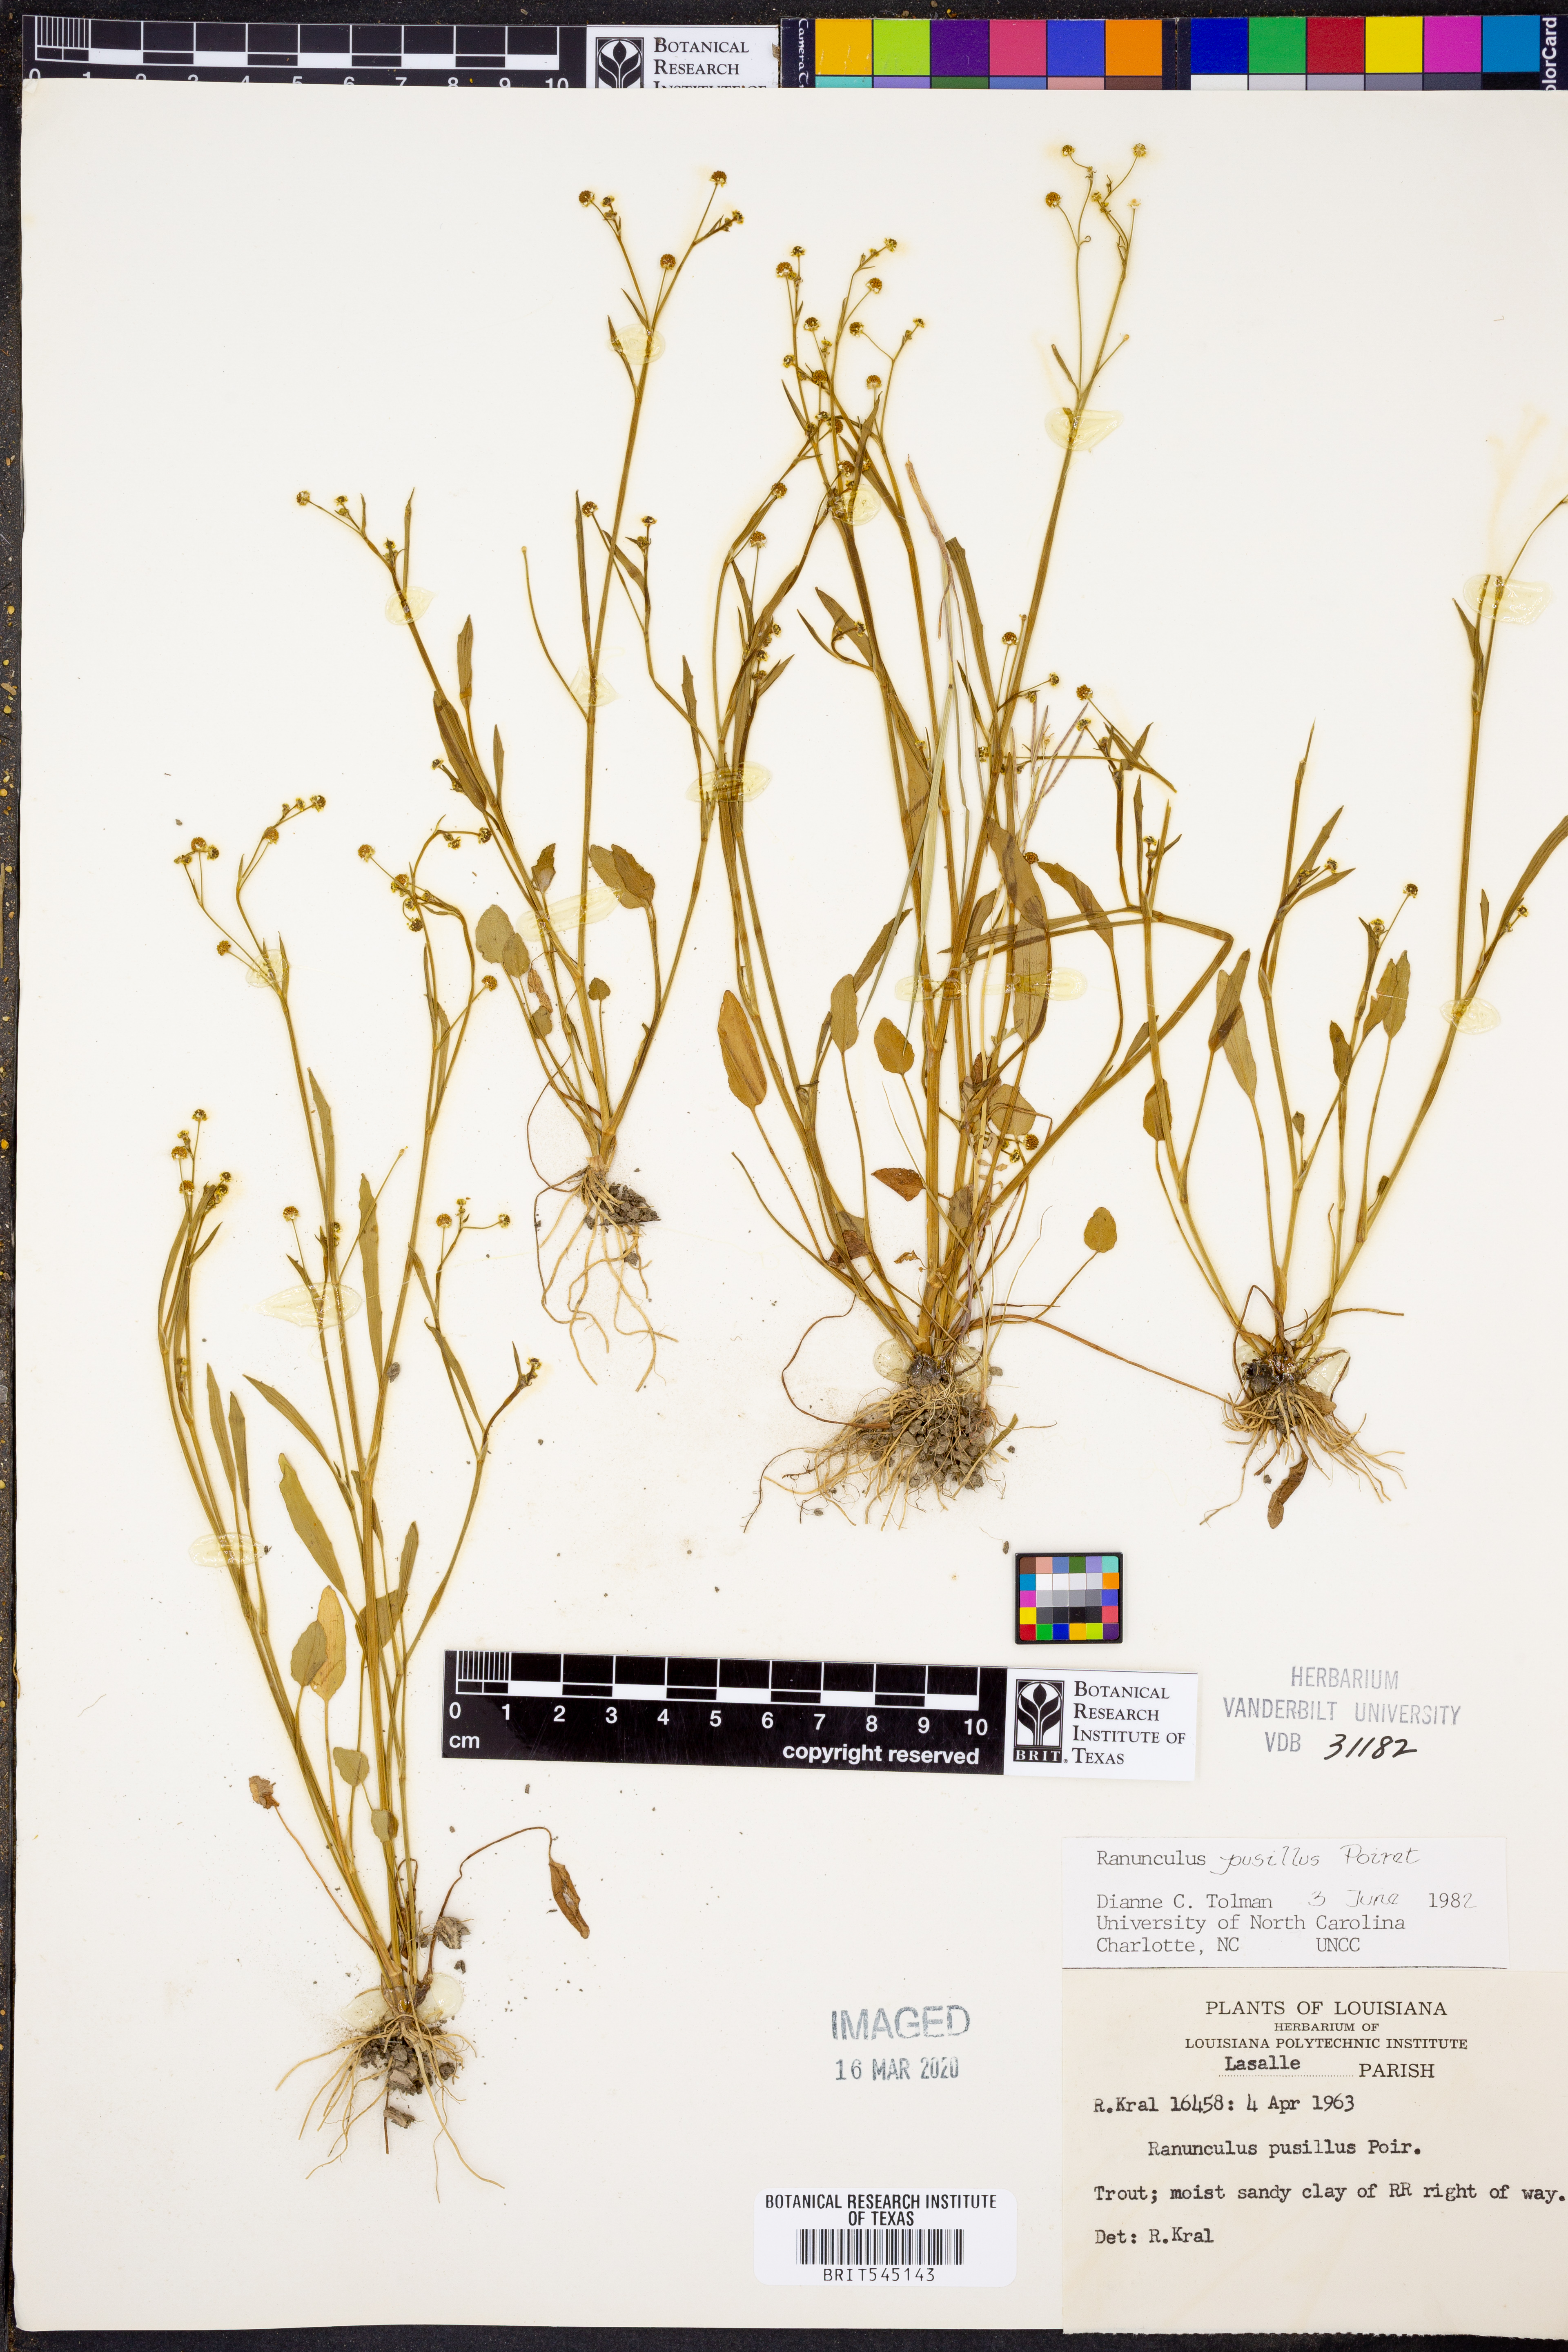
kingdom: Plantae
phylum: Tracheophyta
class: Magnoliopsida
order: Ranunculales
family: Ranunculaceae
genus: Ranunculus
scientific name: Ranunculus pusillus
